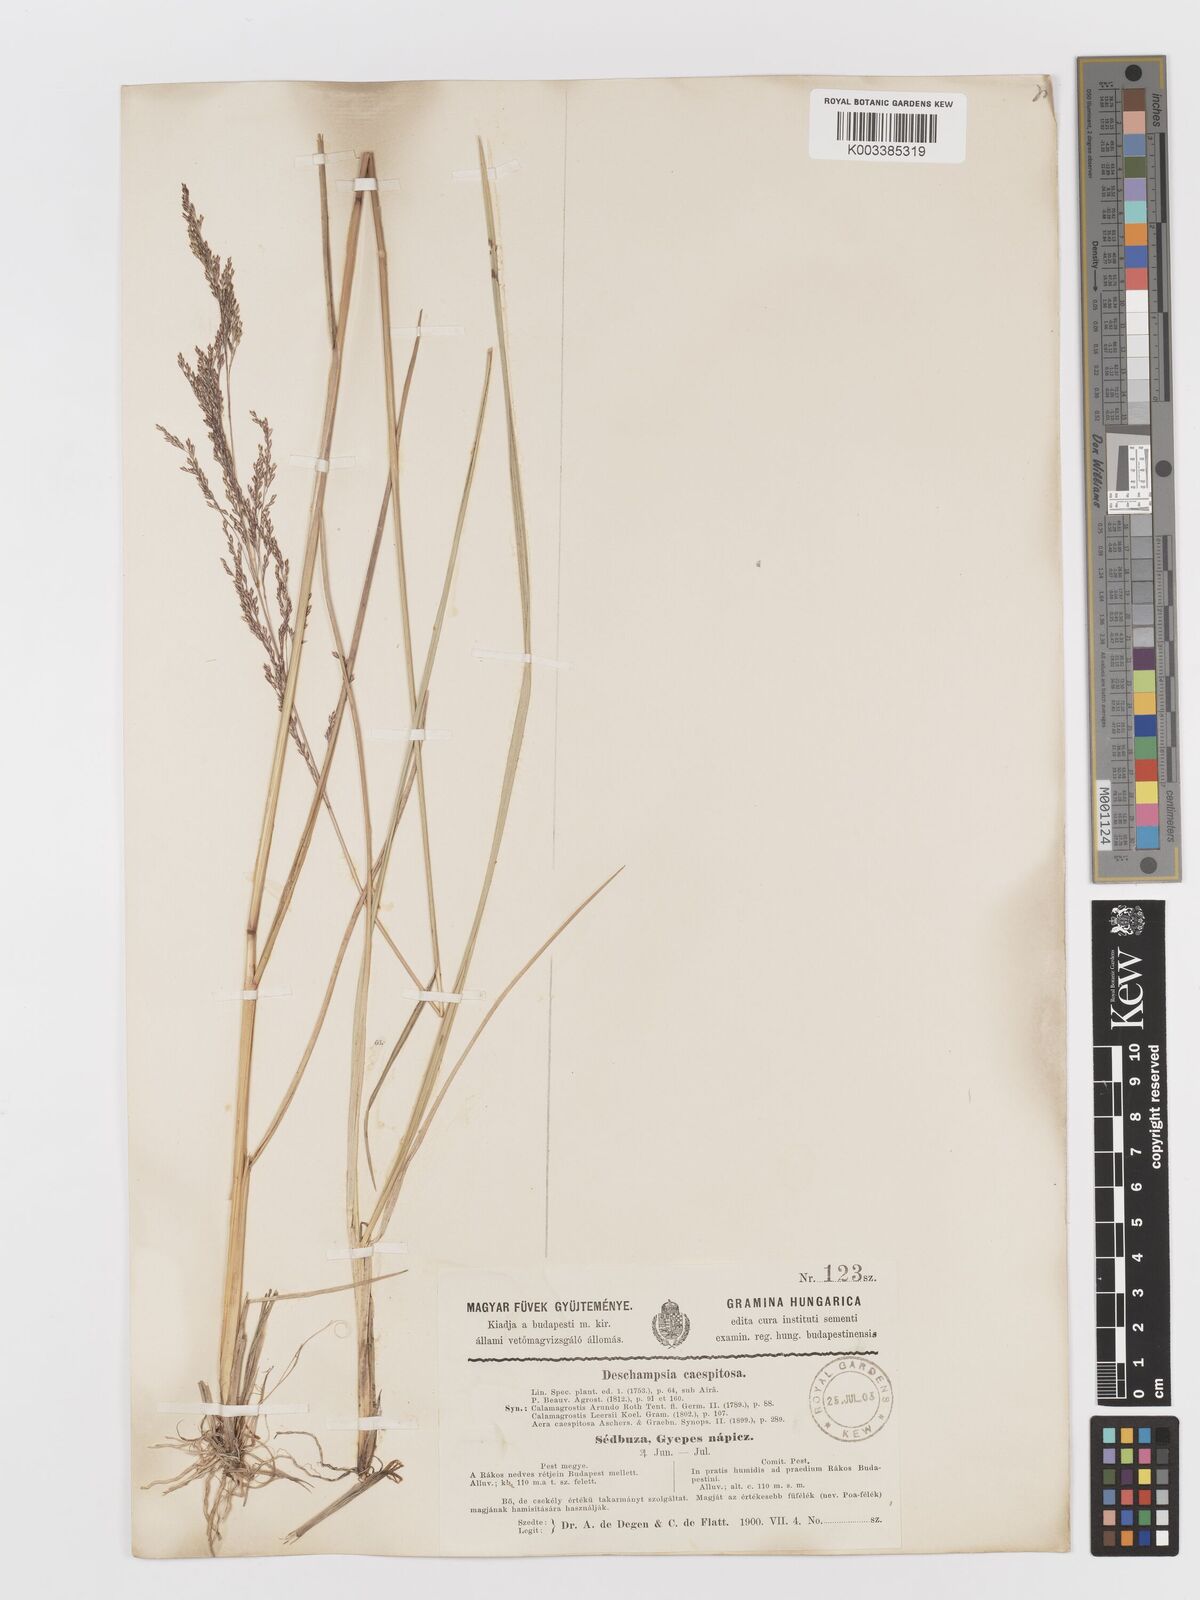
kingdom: Plantae
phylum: Tracheophyta
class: Liliopsida
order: Poales
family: Poaceae
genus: Deschampsia
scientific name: Deschampsia cespitosa
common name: Tufted hair-grass
